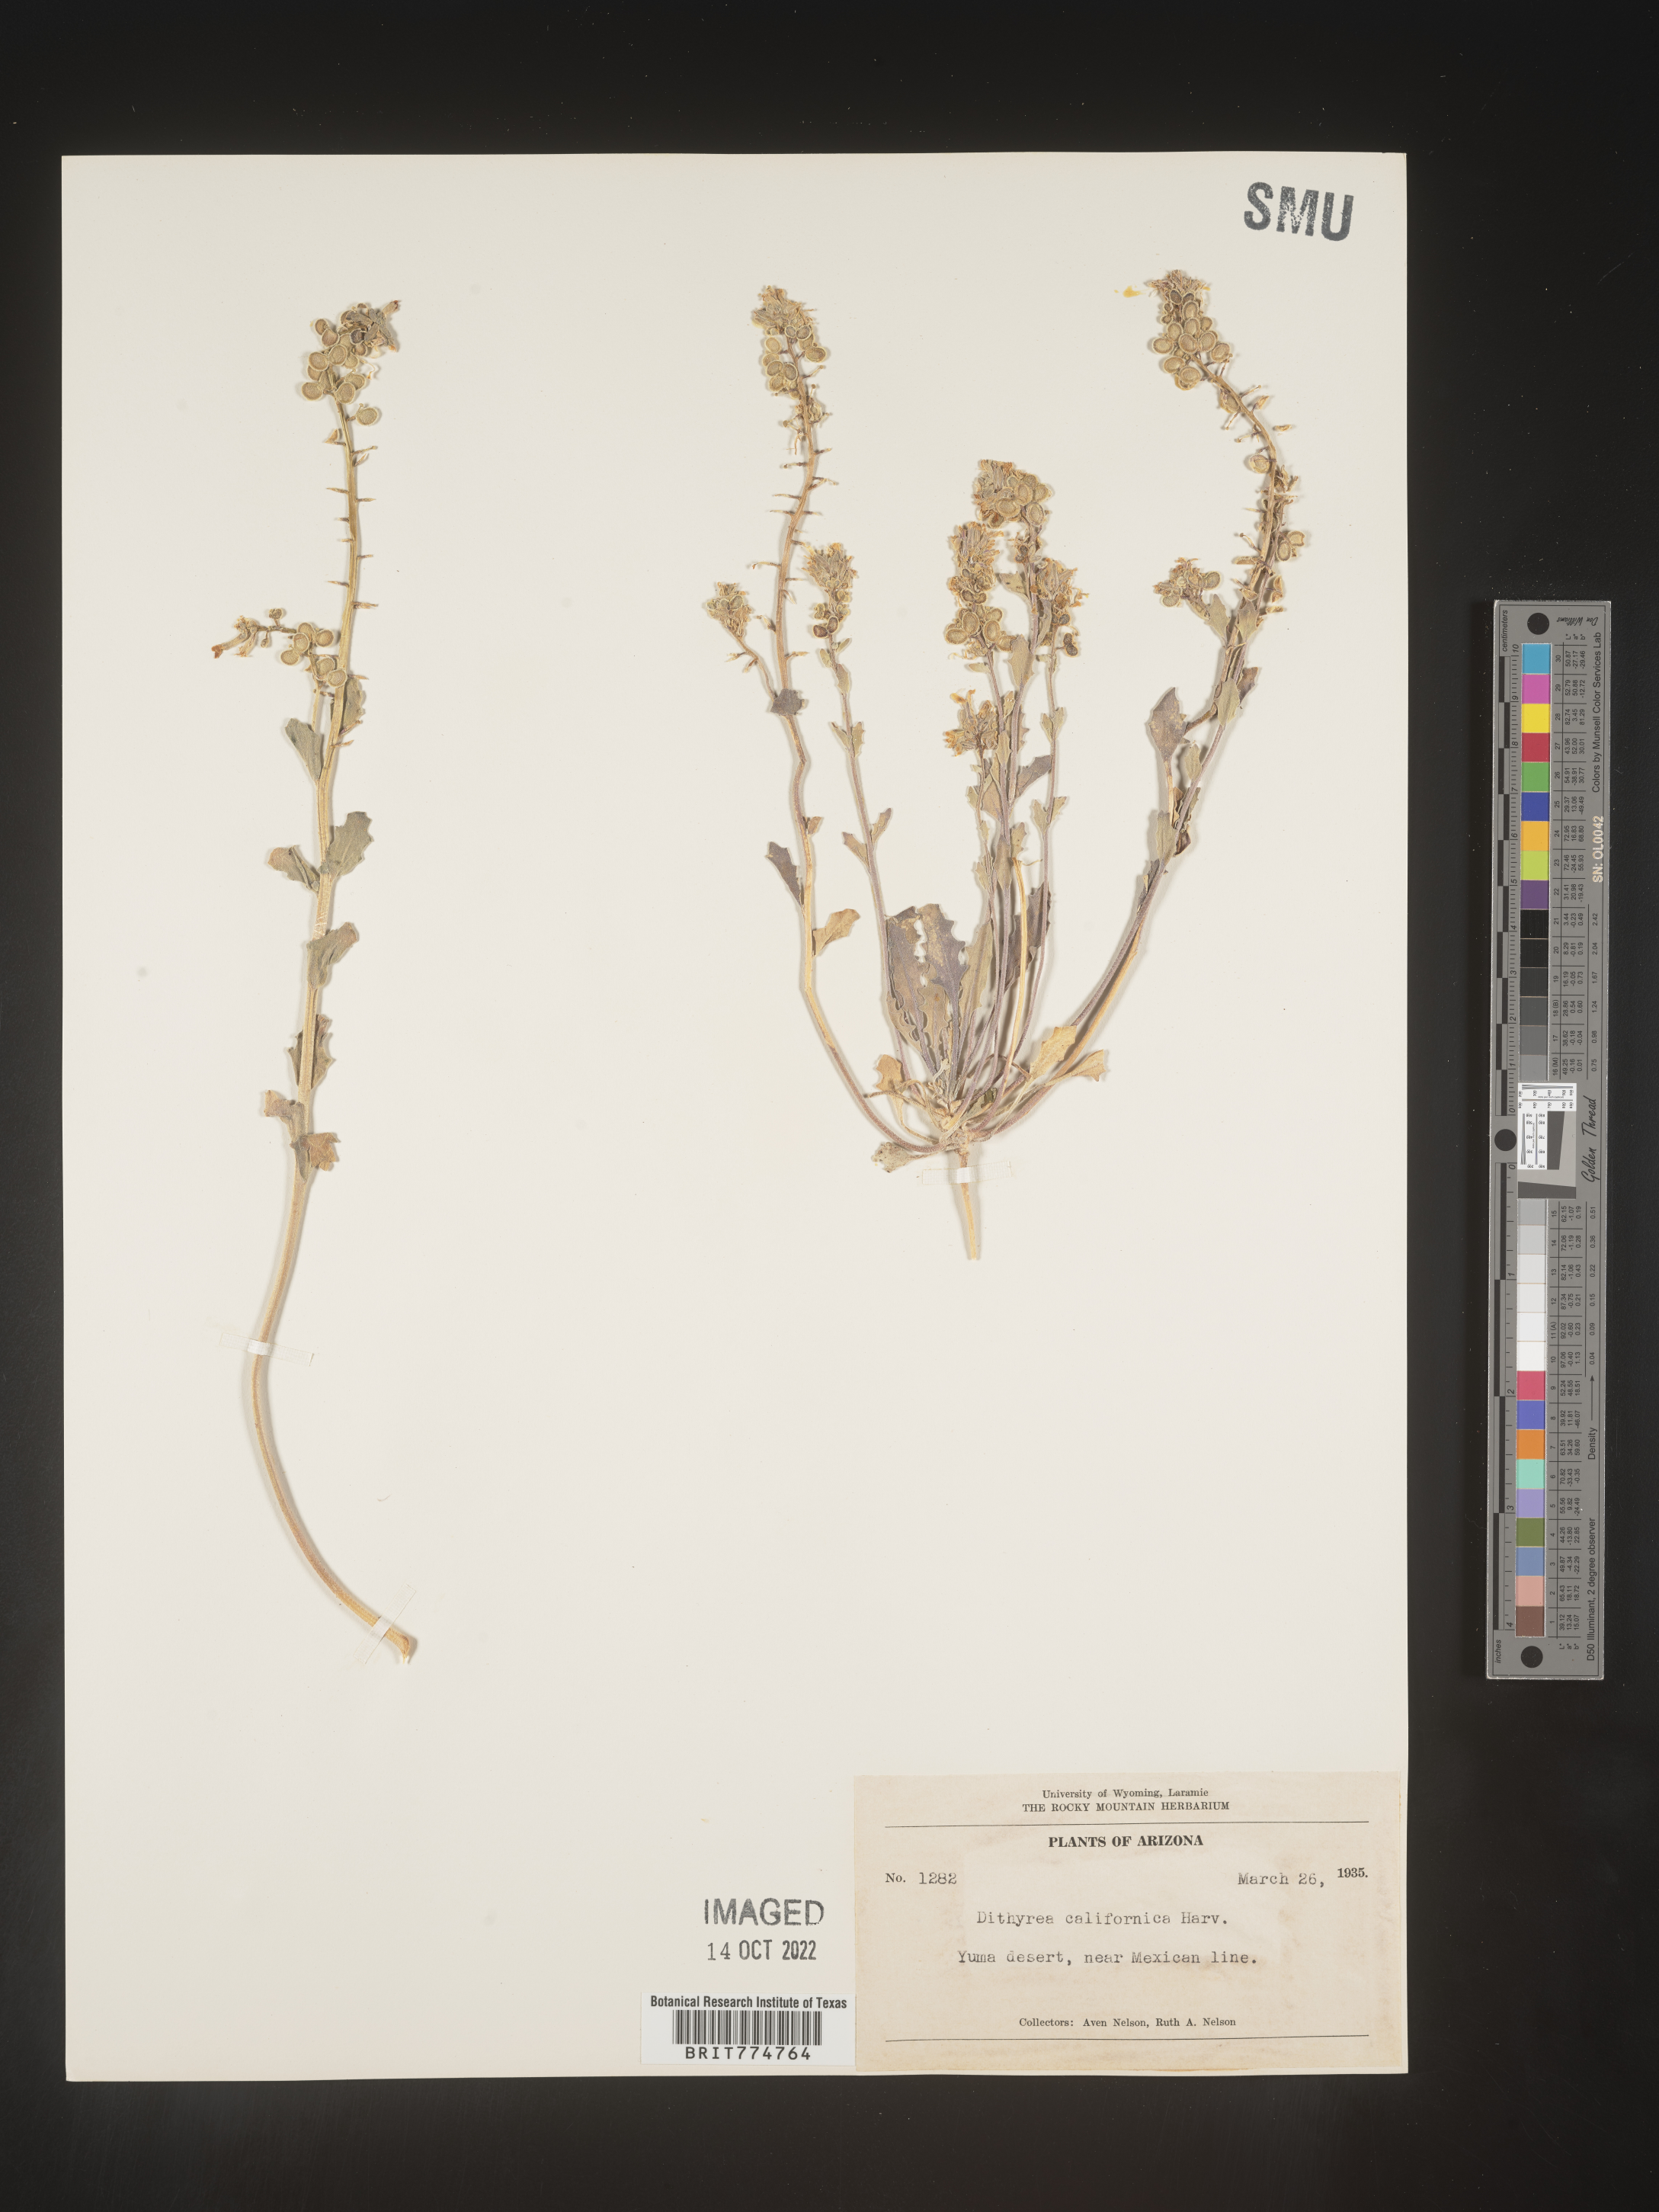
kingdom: Plantae
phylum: Tracheophyta
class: Magnoliopsida
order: Brassicales
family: Brassicaceae
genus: Dithyrea
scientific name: Dithyrea californica
